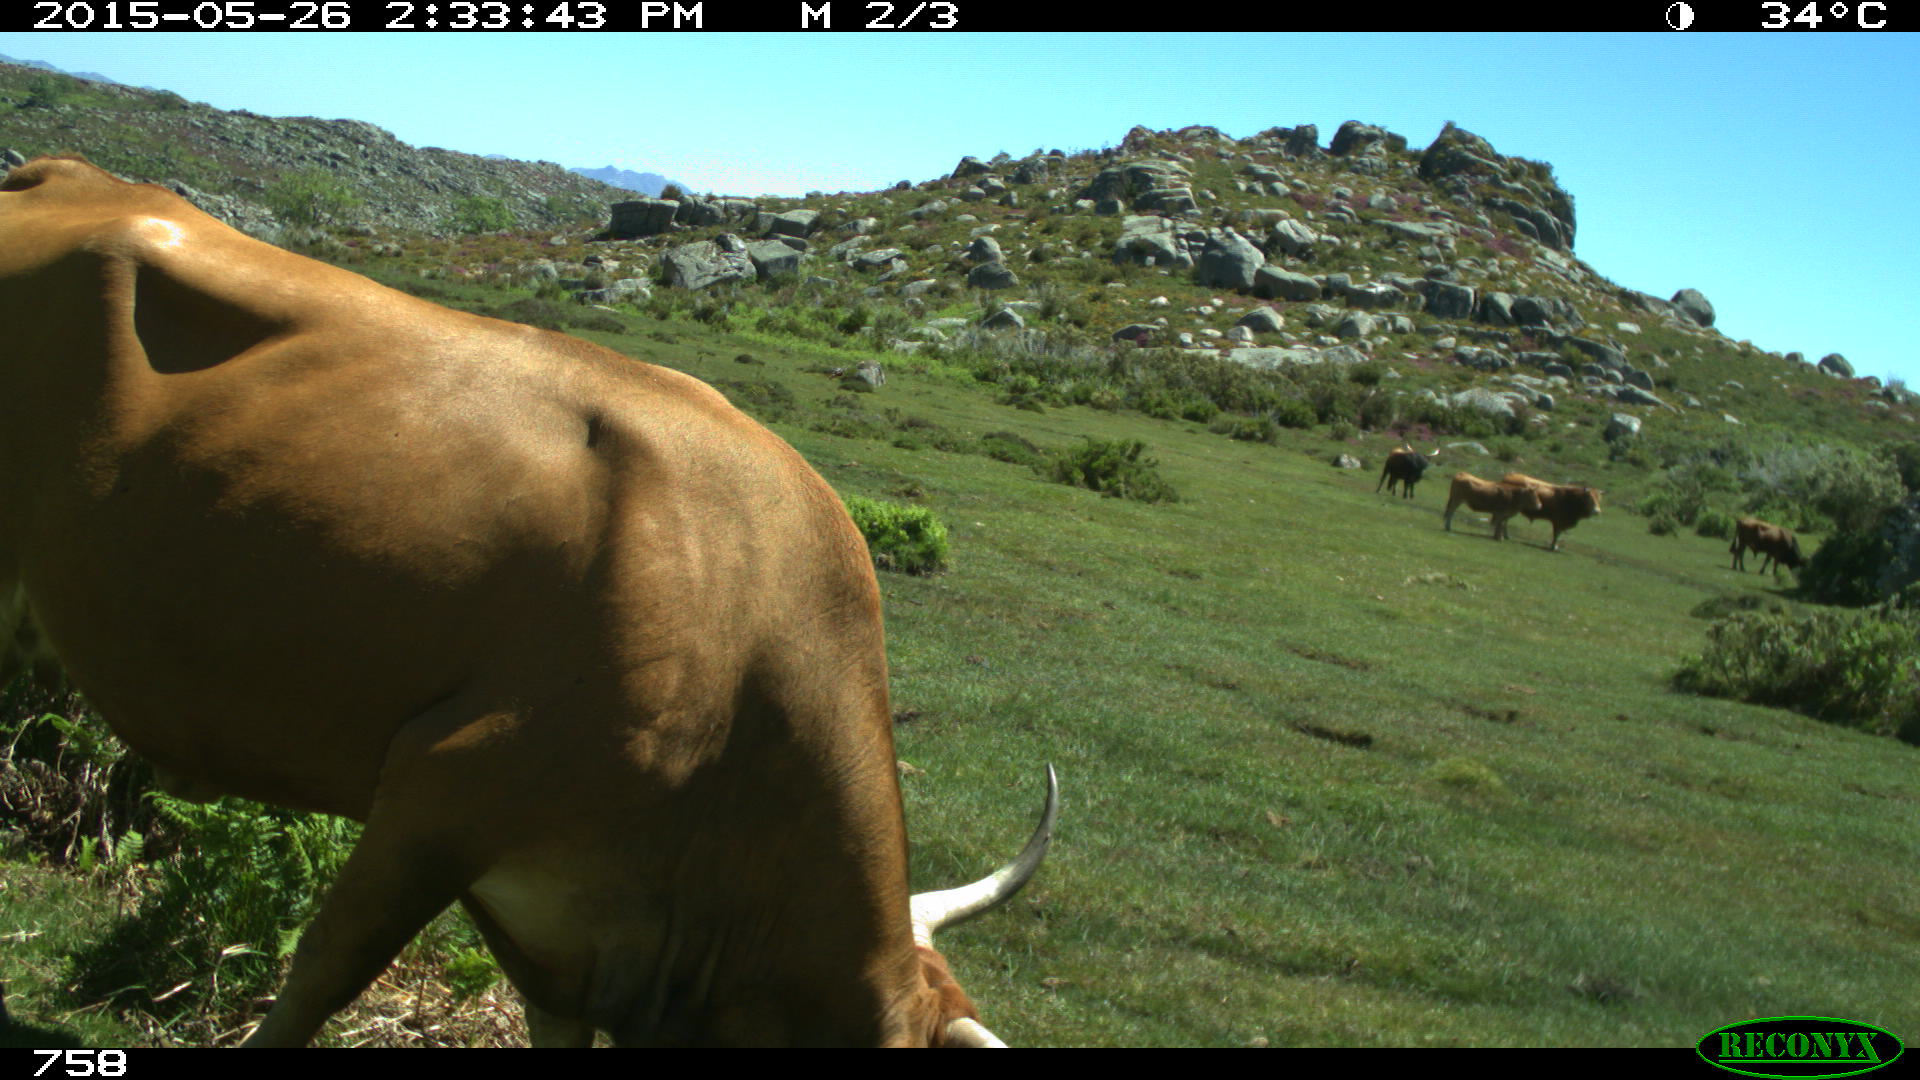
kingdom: Animalia
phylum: Chordata
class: Mammalia
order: Artiodactyla
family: Bovidae
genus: Bos
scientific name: Bos taurus
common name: Domesticated cattle
